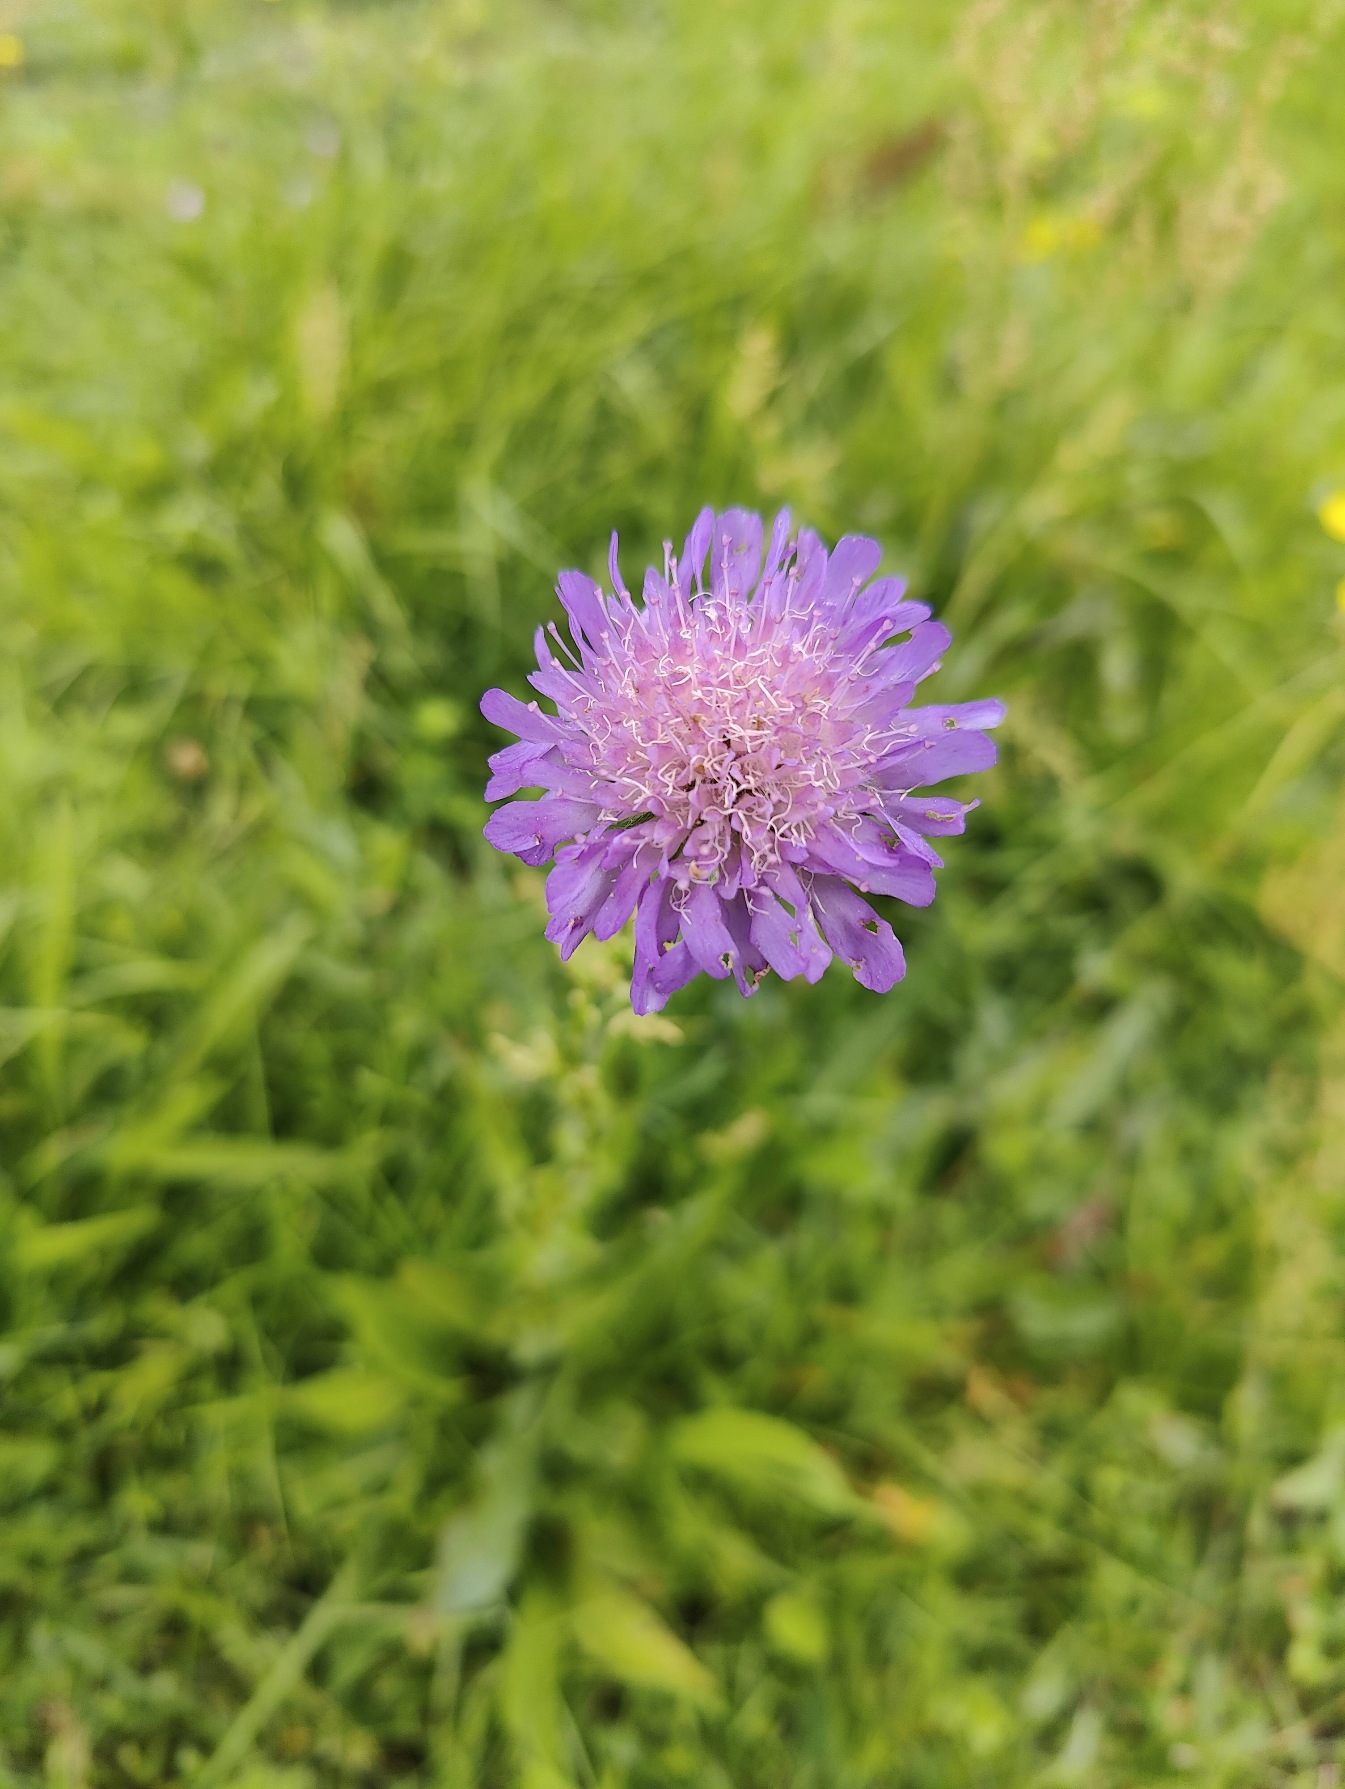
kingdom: Plantae
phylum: Tracheophyta
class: Magnoliopsida
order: Dipsacales
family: Caprifoliaceae
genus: Knautia
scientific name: Knautia arvensis
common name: Blåhat
